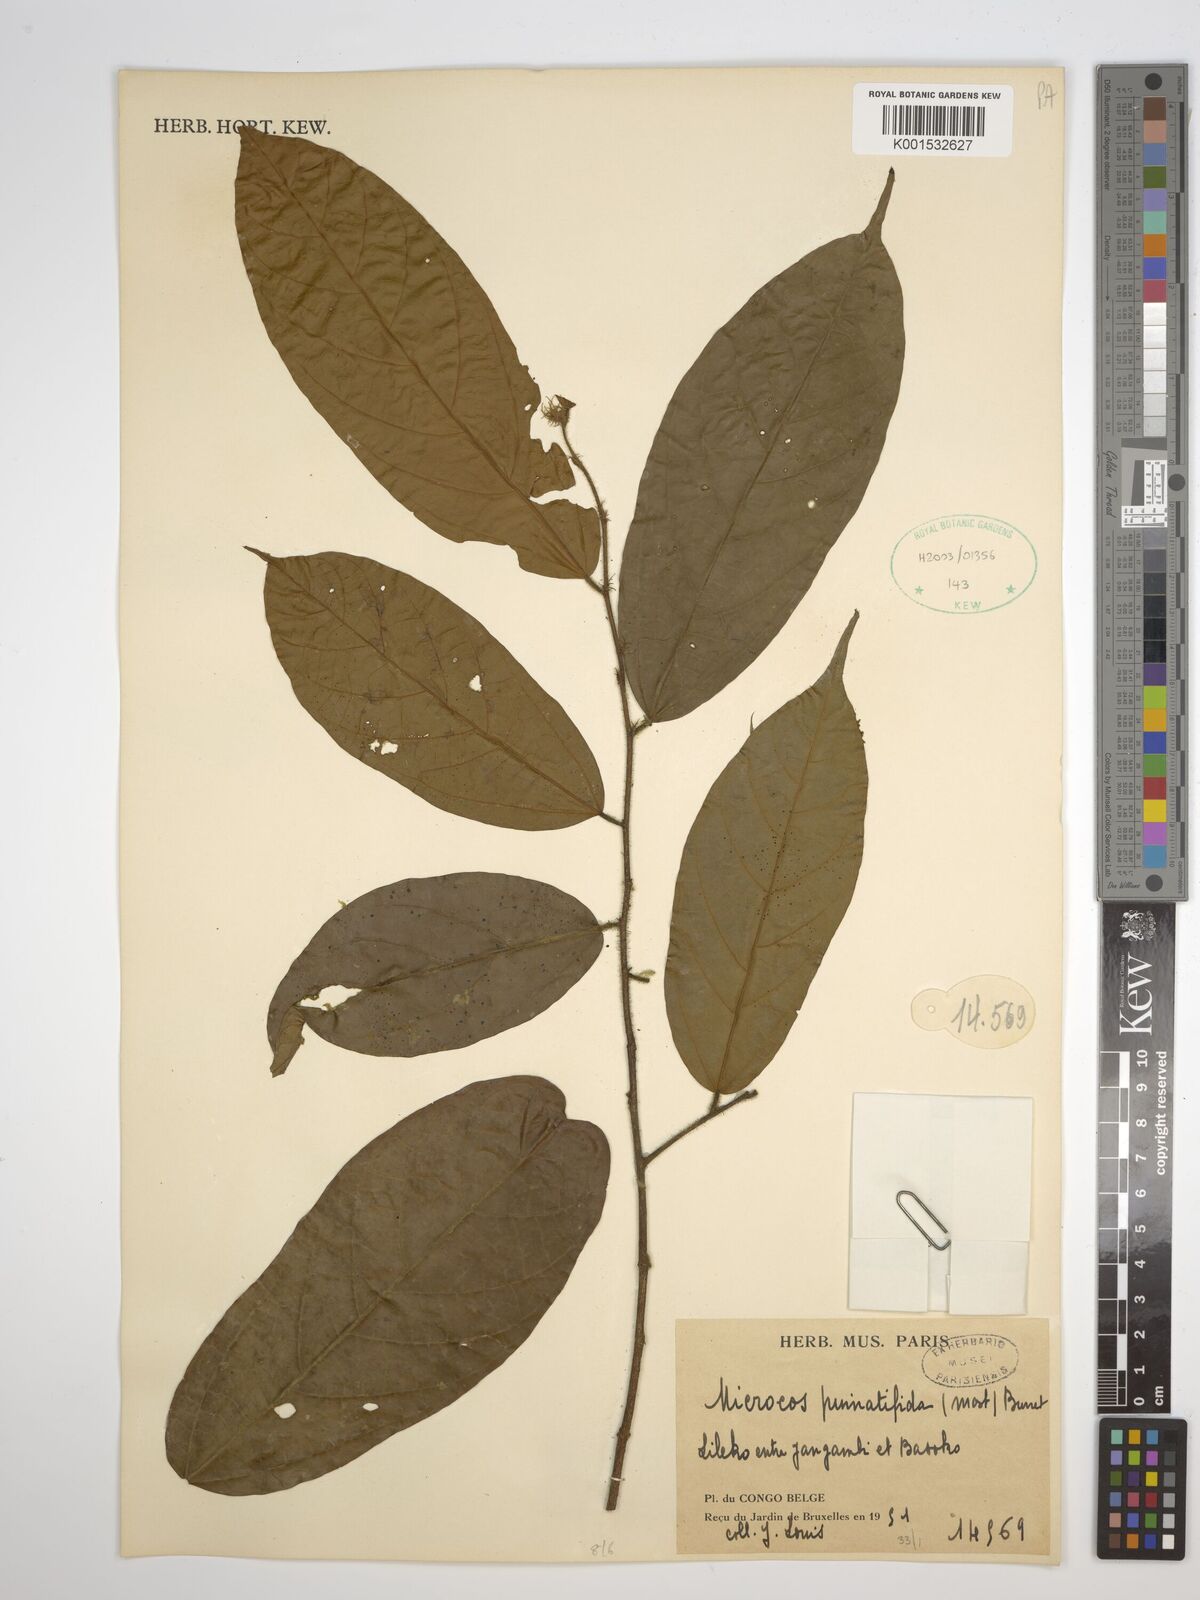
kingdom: Plantae
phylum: Tracheophyta
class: Magnoliopsida
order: Malvales
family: Malvaceae
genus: Microcos
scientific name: Microcos pinnatifida
